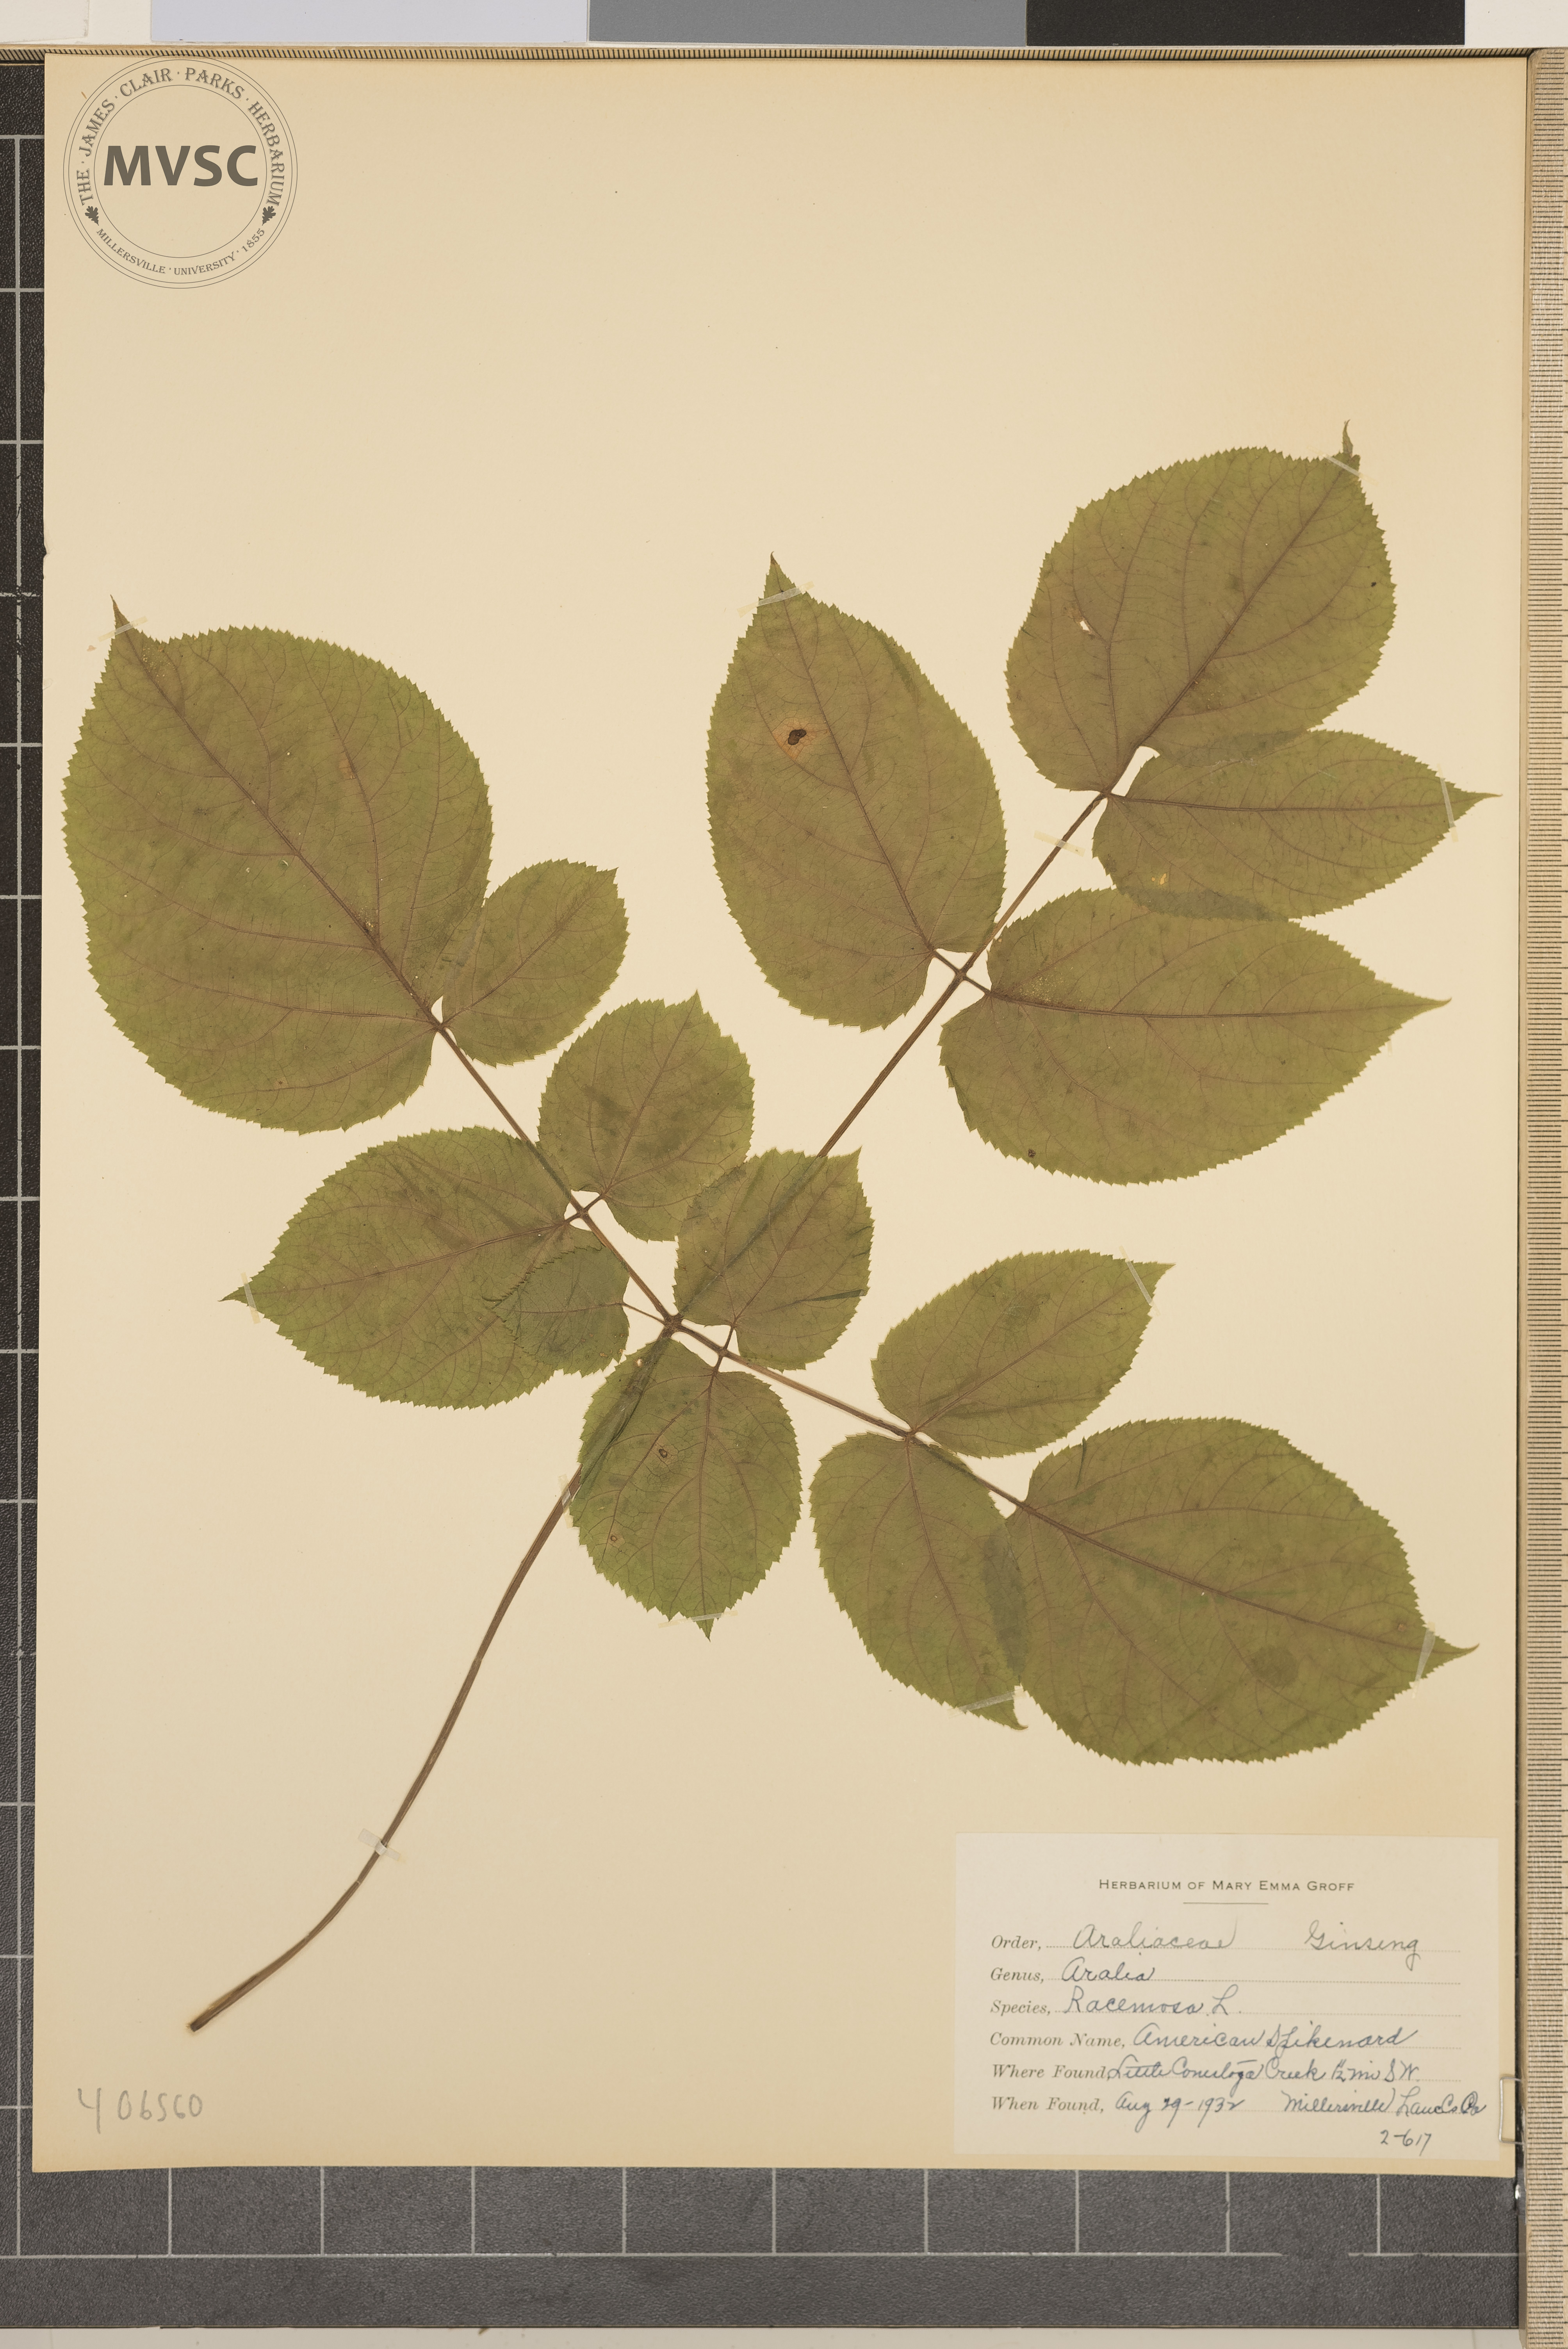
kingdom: Plantae
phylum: Tracheophyta
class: Magnoliopsida
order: Apiales
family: Araliaceae
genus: Aralia
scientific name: Aralia racemosa
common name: American Spikenard
